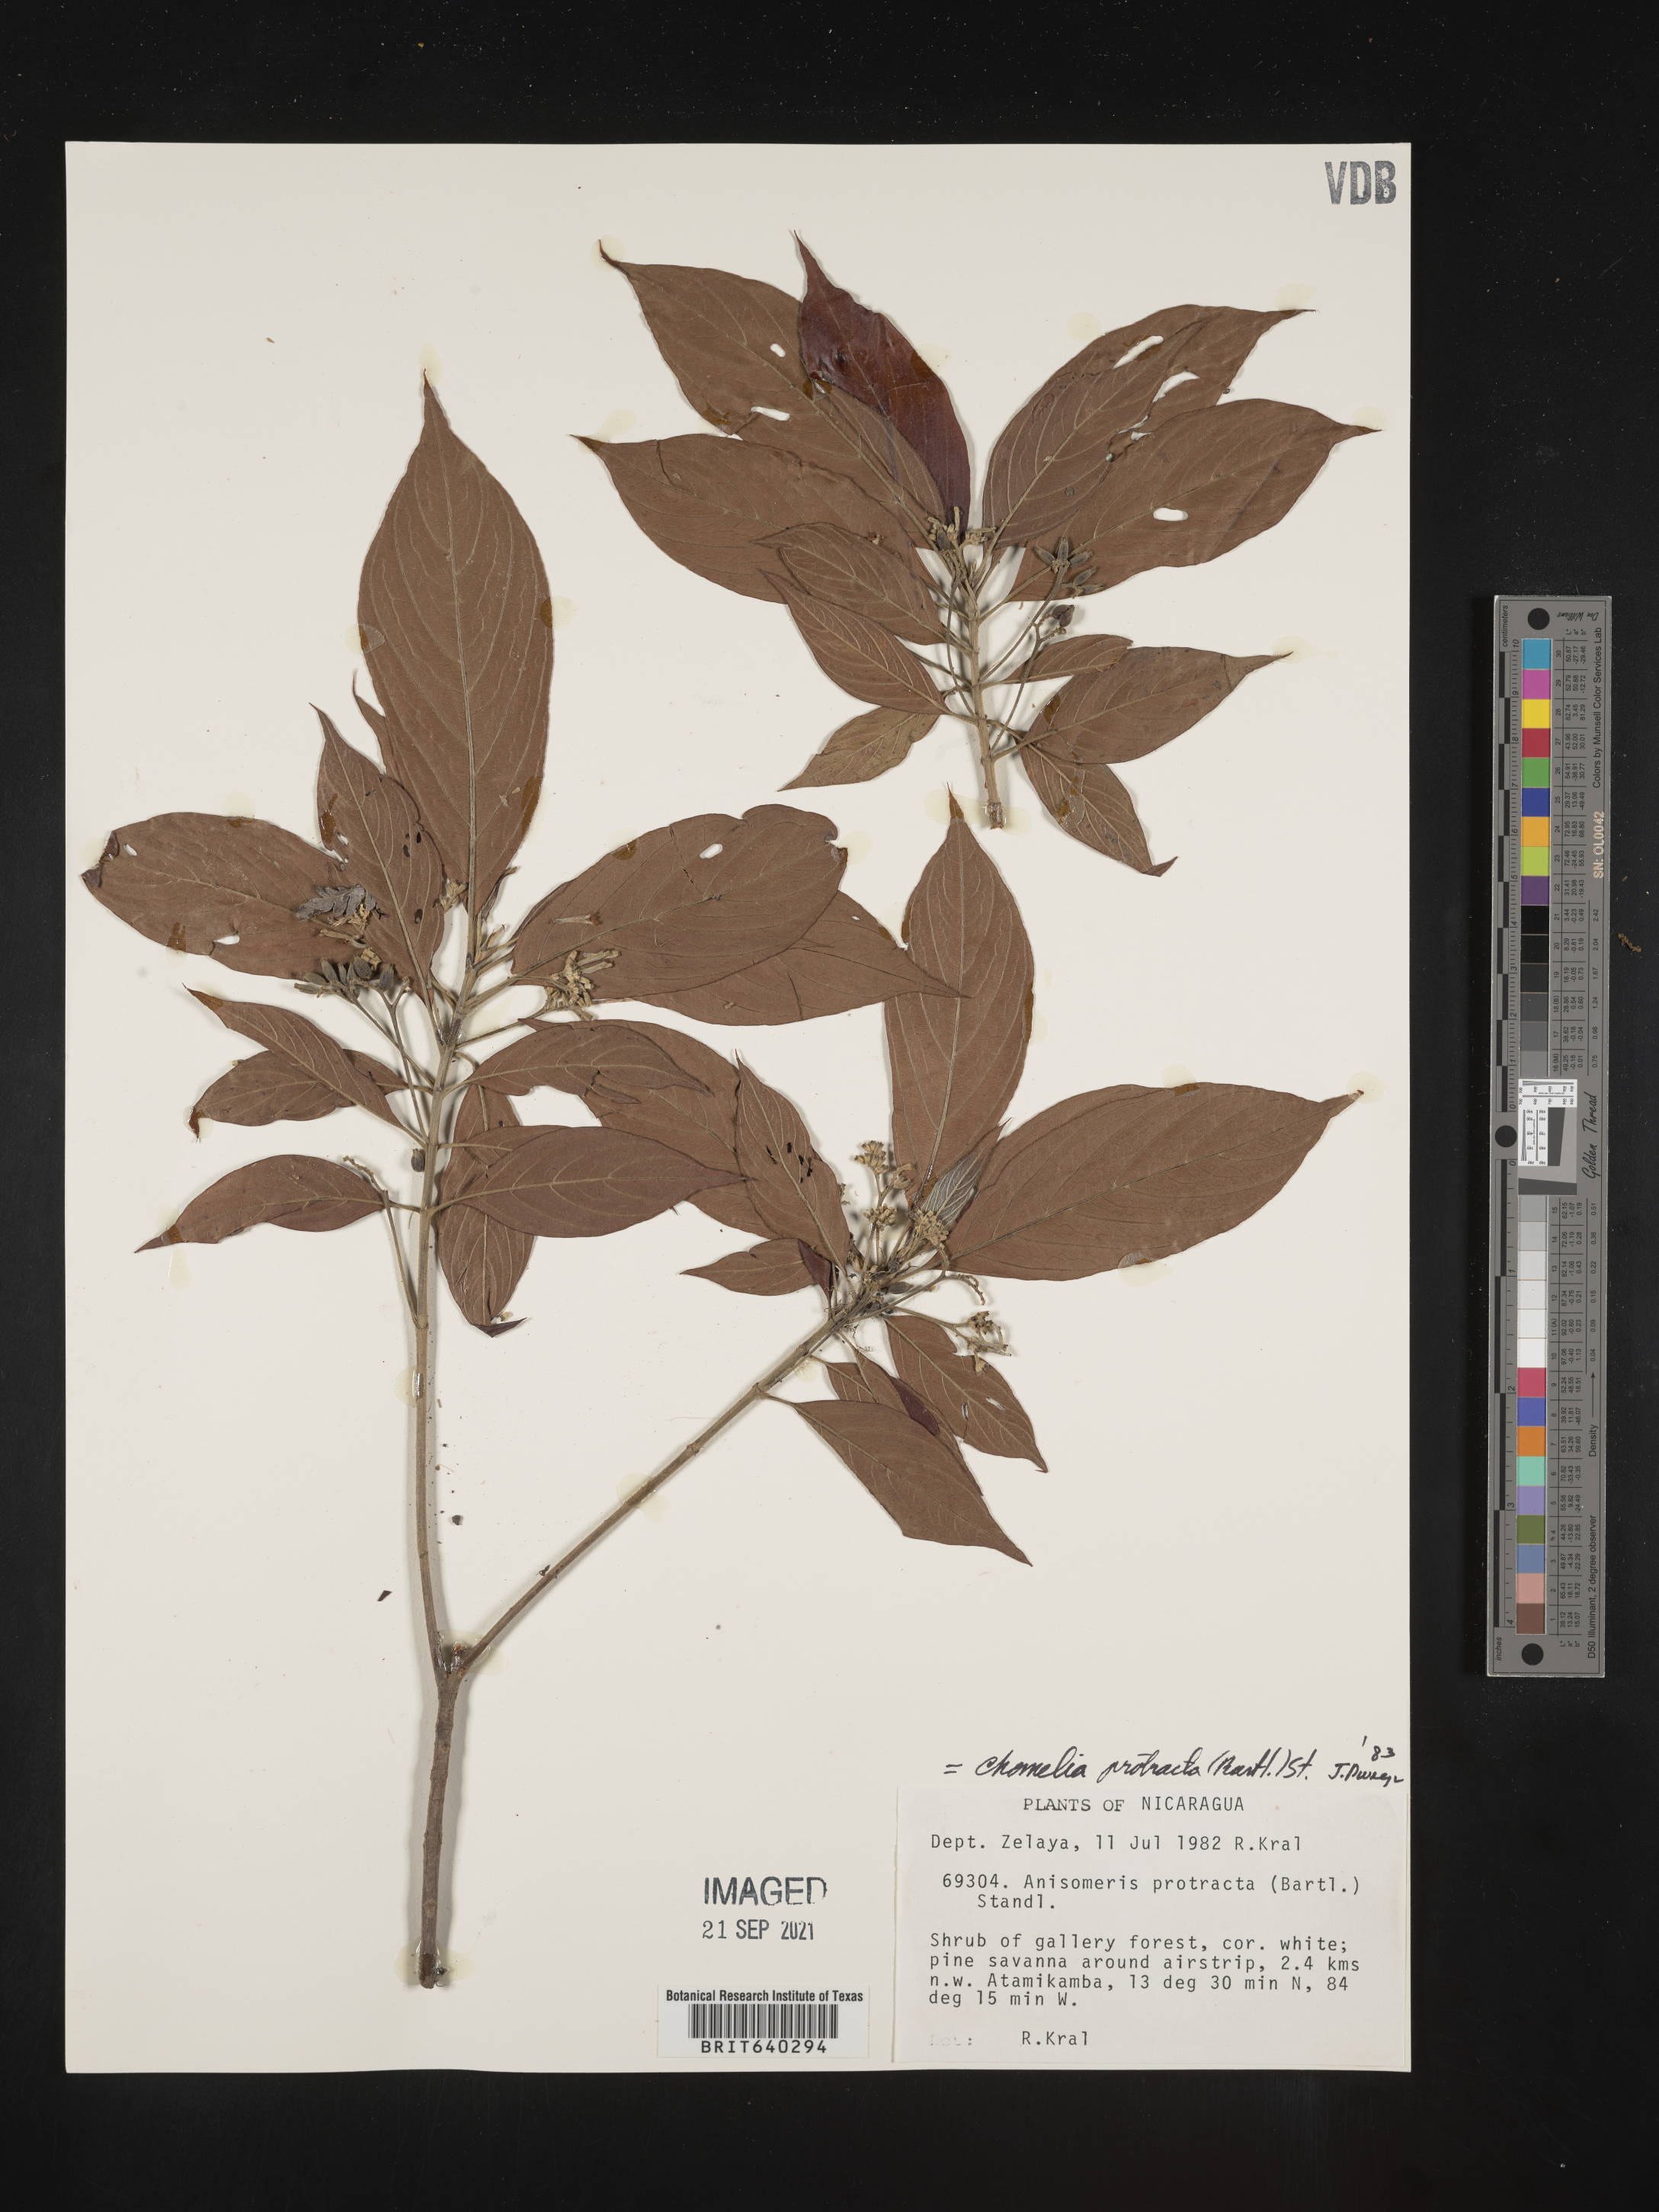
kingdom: Plantae
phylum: Tracheophyta
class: Magnoliopsida
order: Gentianales
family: Rubiaceae
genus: Chomelia
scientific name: Chomelia
